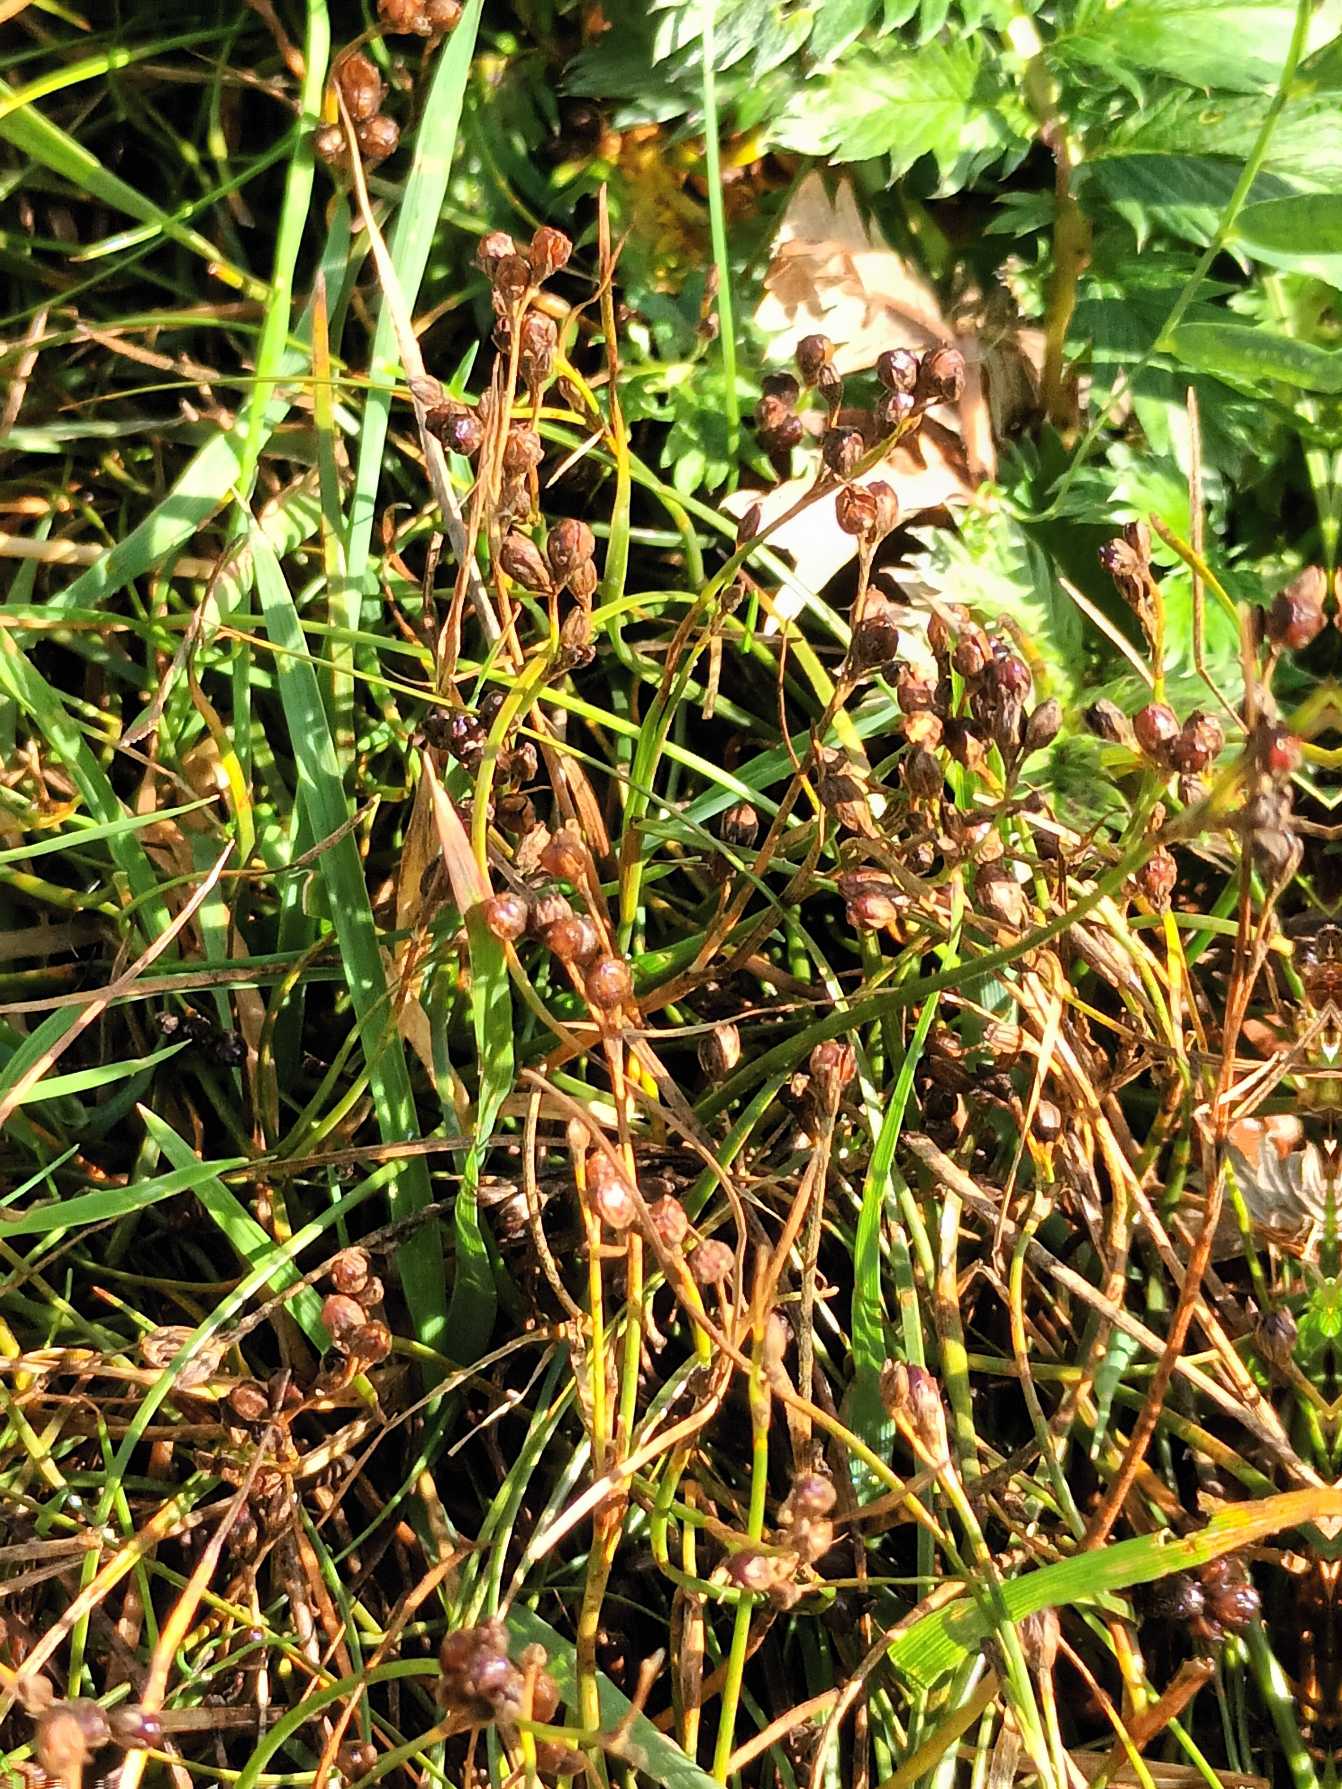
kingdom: Plantae
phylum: Tracheophyta
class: Liliopsida
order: Poales
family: Juncaceae
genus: Juncus
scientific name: Juncus gerardi
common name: Harril
